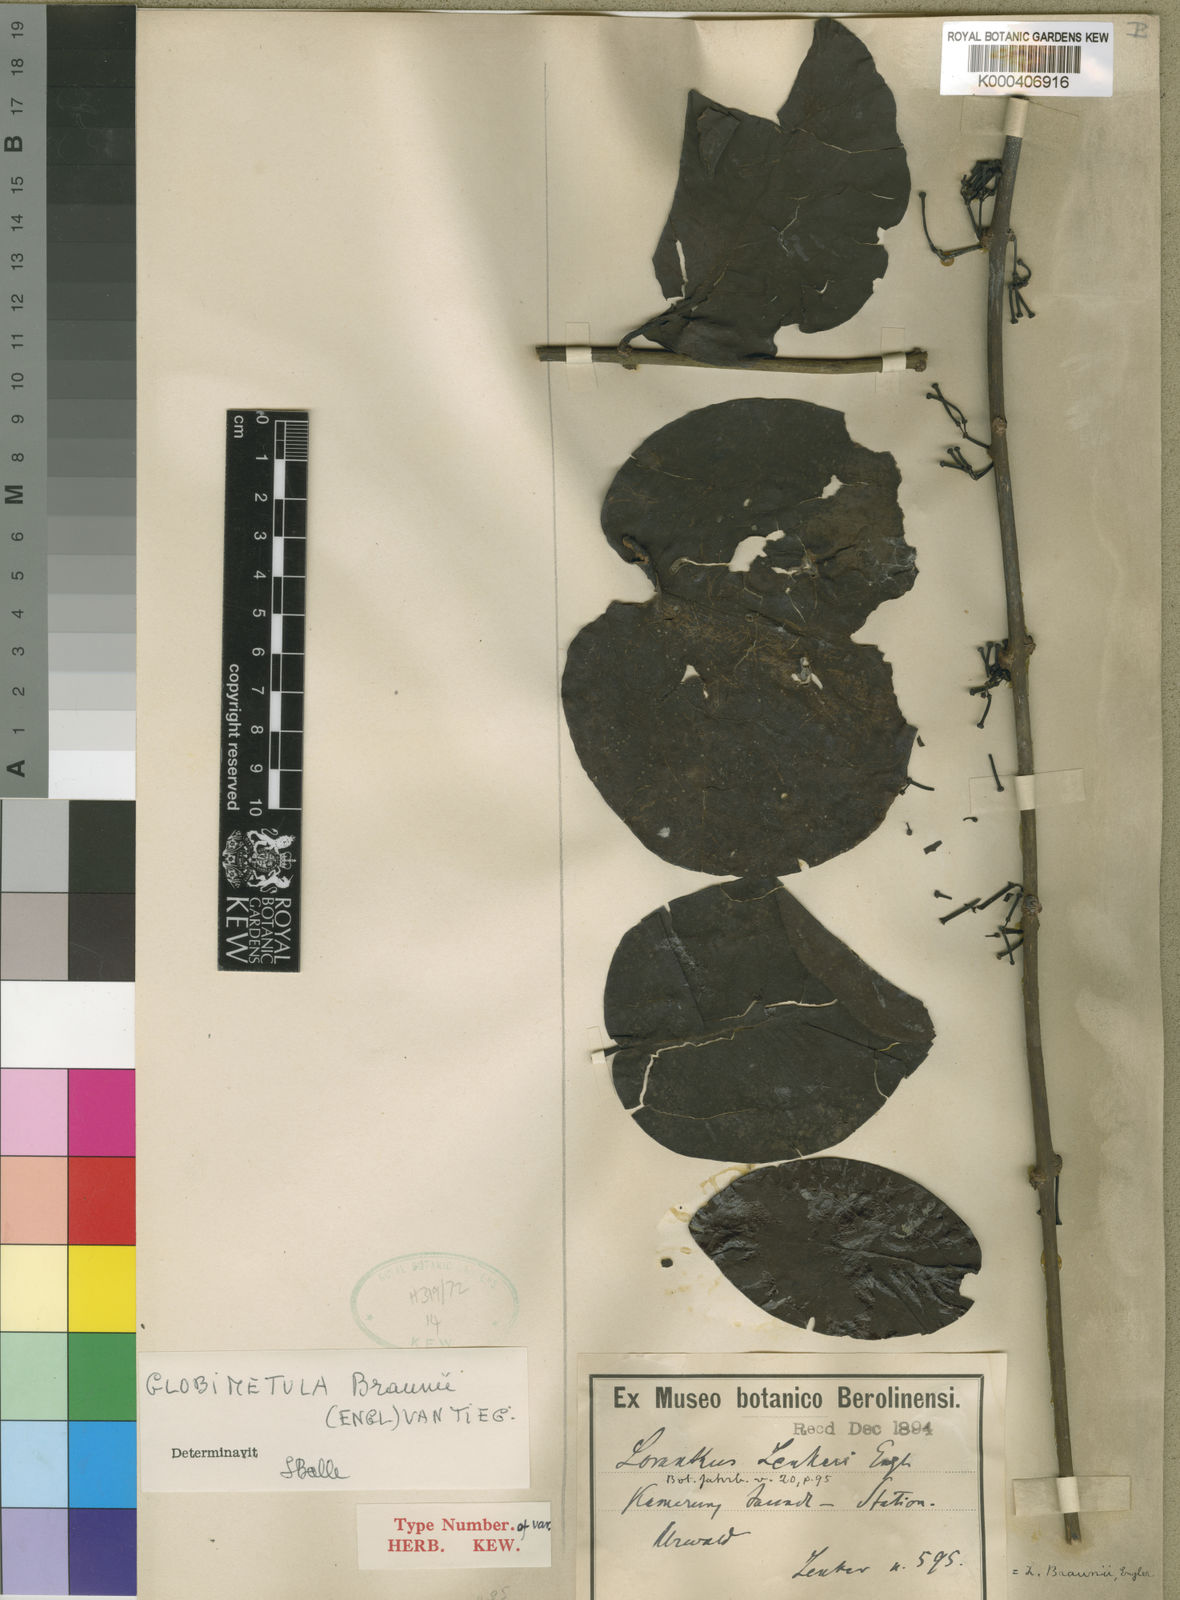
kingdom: Plantae
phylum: Tracheophyta
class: Magnoliopsida
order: Santalales
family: Loranthaceae
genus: Globimetula
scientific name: Globimetula braunii
